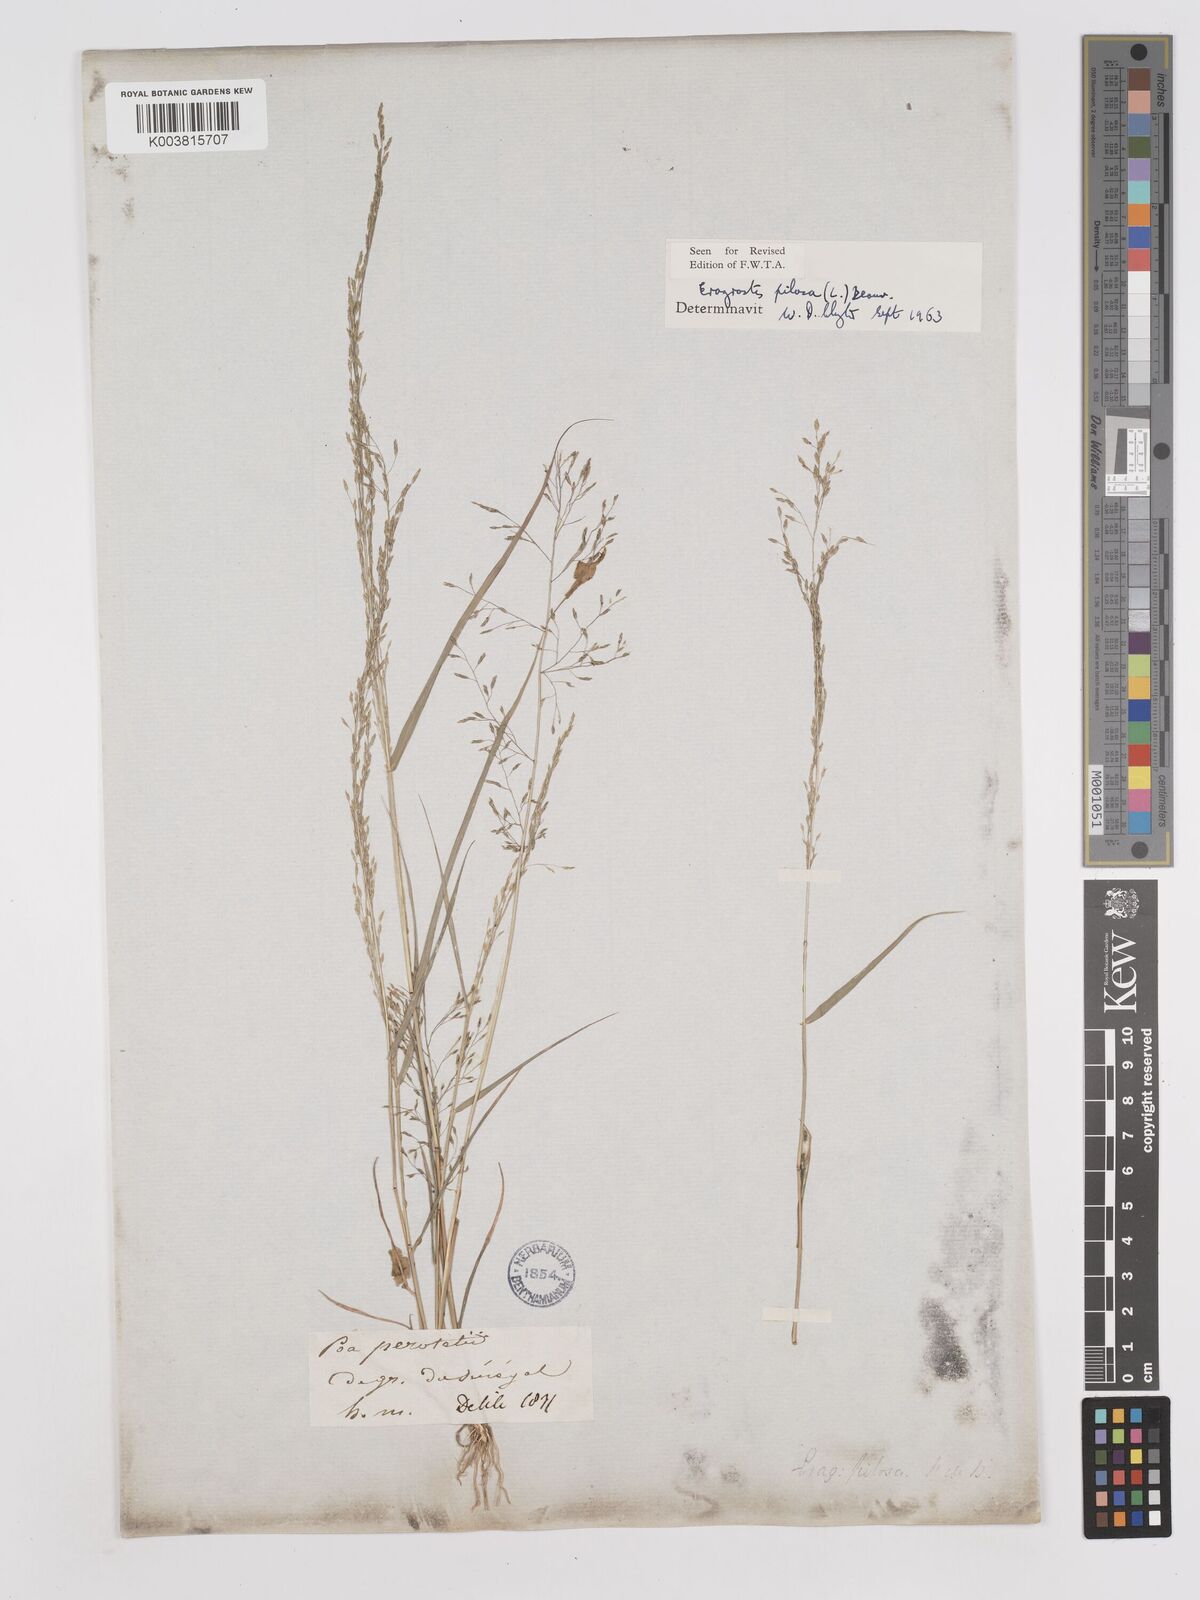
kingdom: Plantae
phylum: Tracheophyta
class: Liliopsida
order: Poales
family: Poaceae
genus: Eragrostis
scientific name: Eragrostis pilosa
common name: Indian lovegrass
